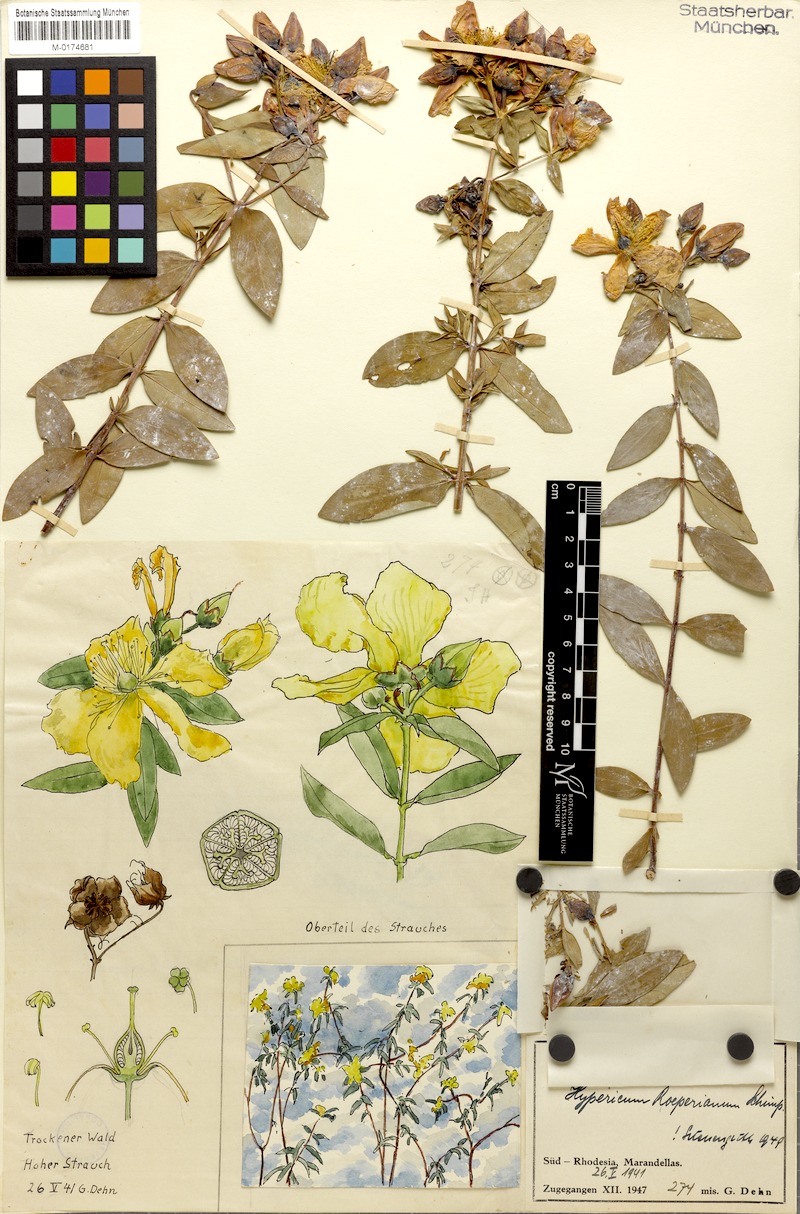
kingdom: Plantae
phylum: Tracheophyta
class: Magnoliopsida
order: Malpighiales
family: Hypericaceae
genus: Hypericum
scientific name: Hypericum roeperianum
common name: Large-leaved curry-bush
